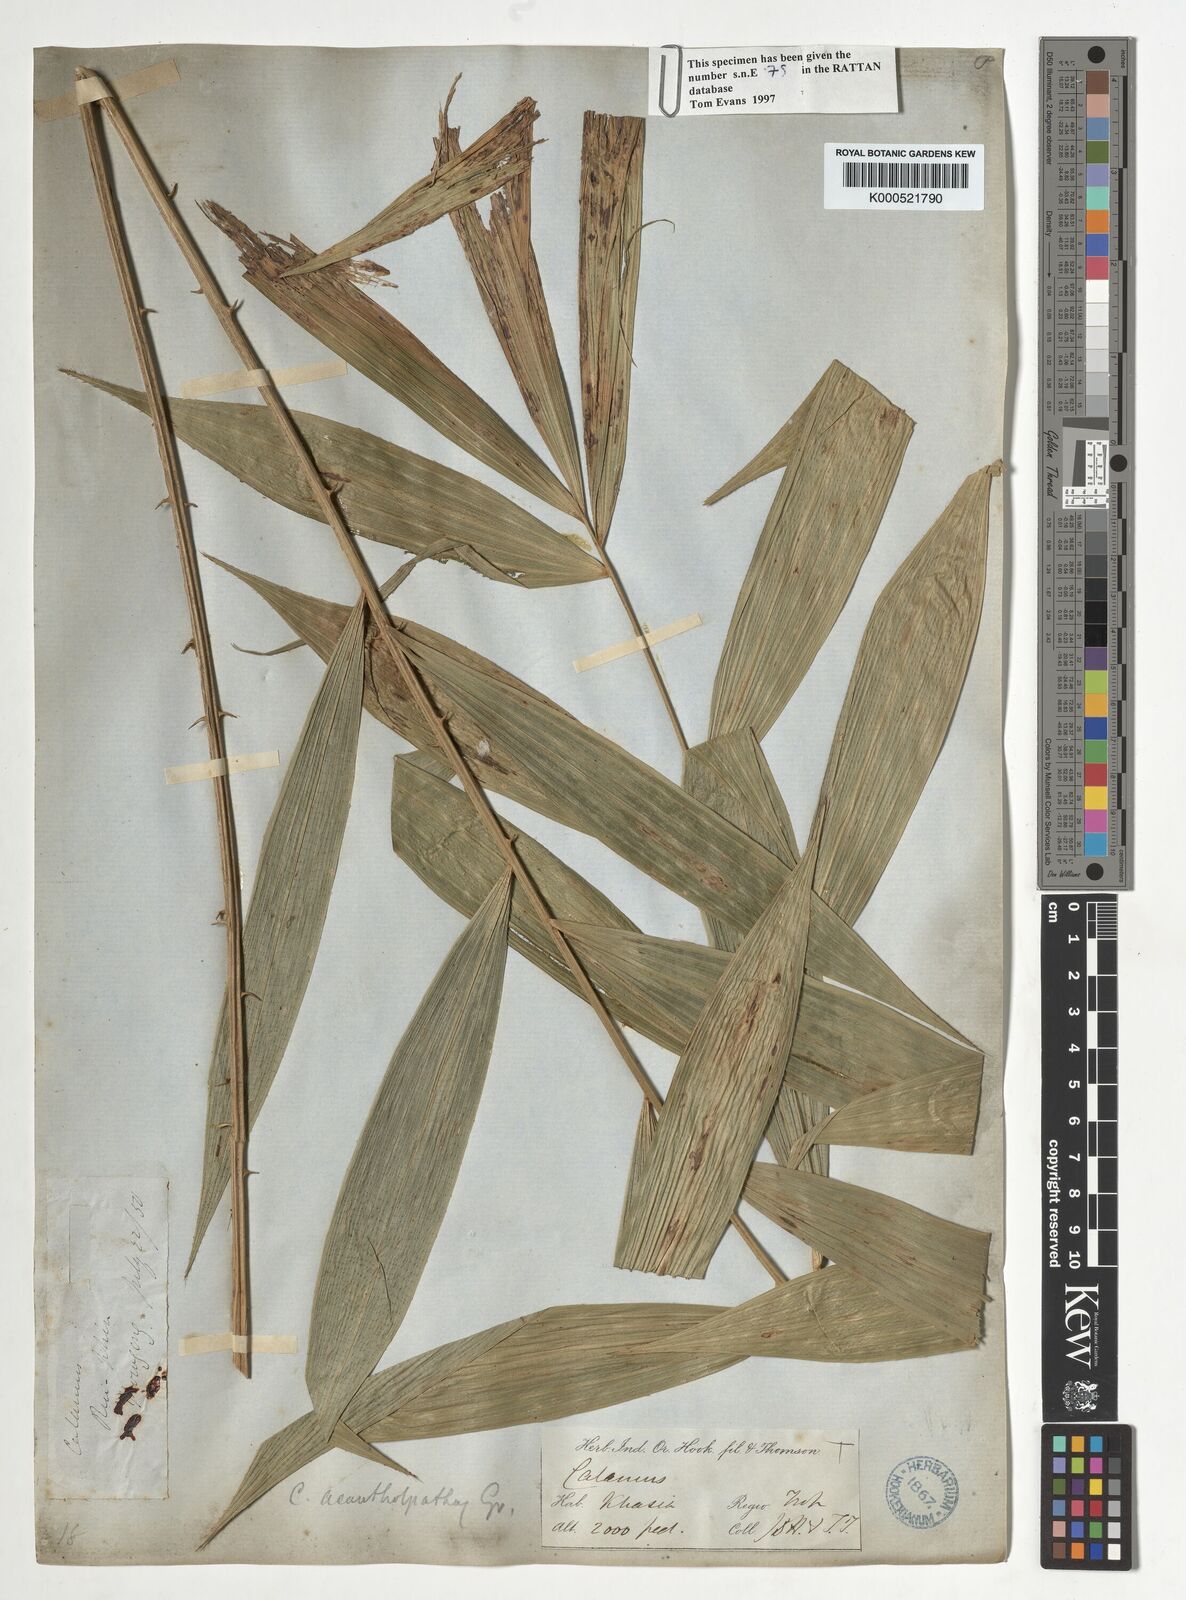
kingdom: Plantae
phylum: Tracheophyta
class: Liliopsida
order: Arecales
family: Arecaceae
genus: Calamus
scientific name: Calamus acanthospathus
